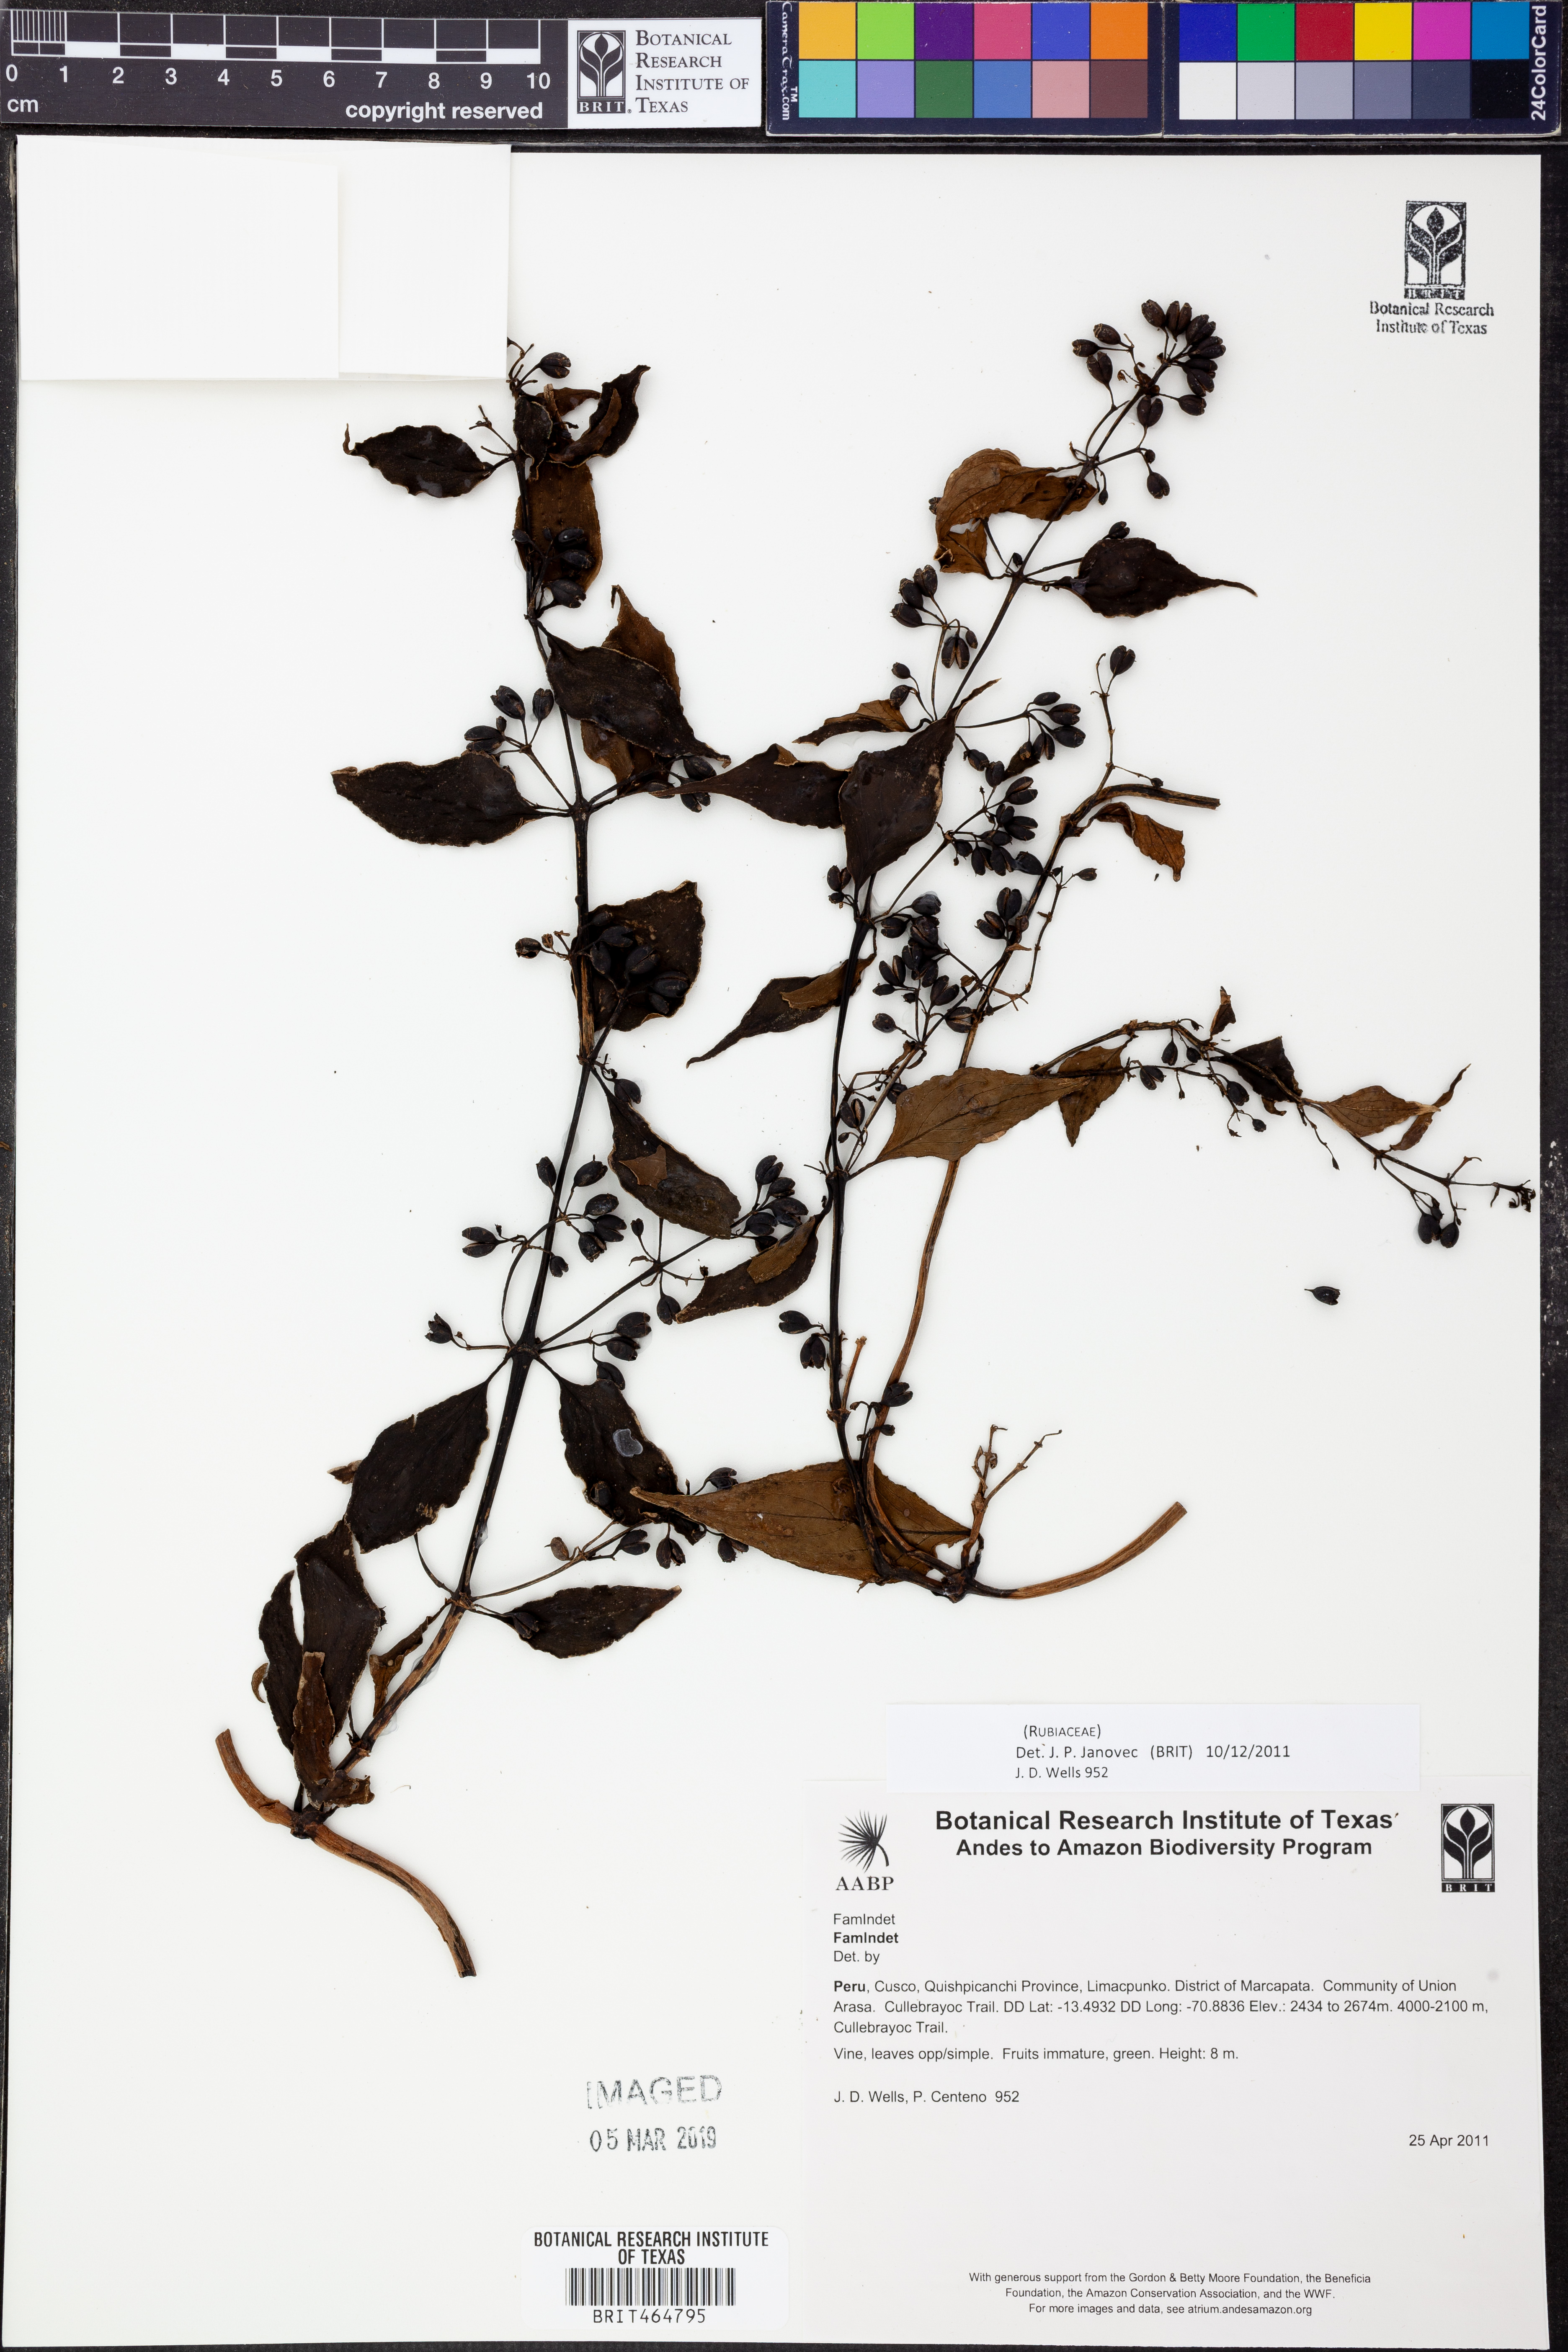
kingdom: Plantae
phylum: Tracheophyta
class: Magnoliopsida
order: Gentianales
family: Rubiaceae
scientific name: Rubiaceae
